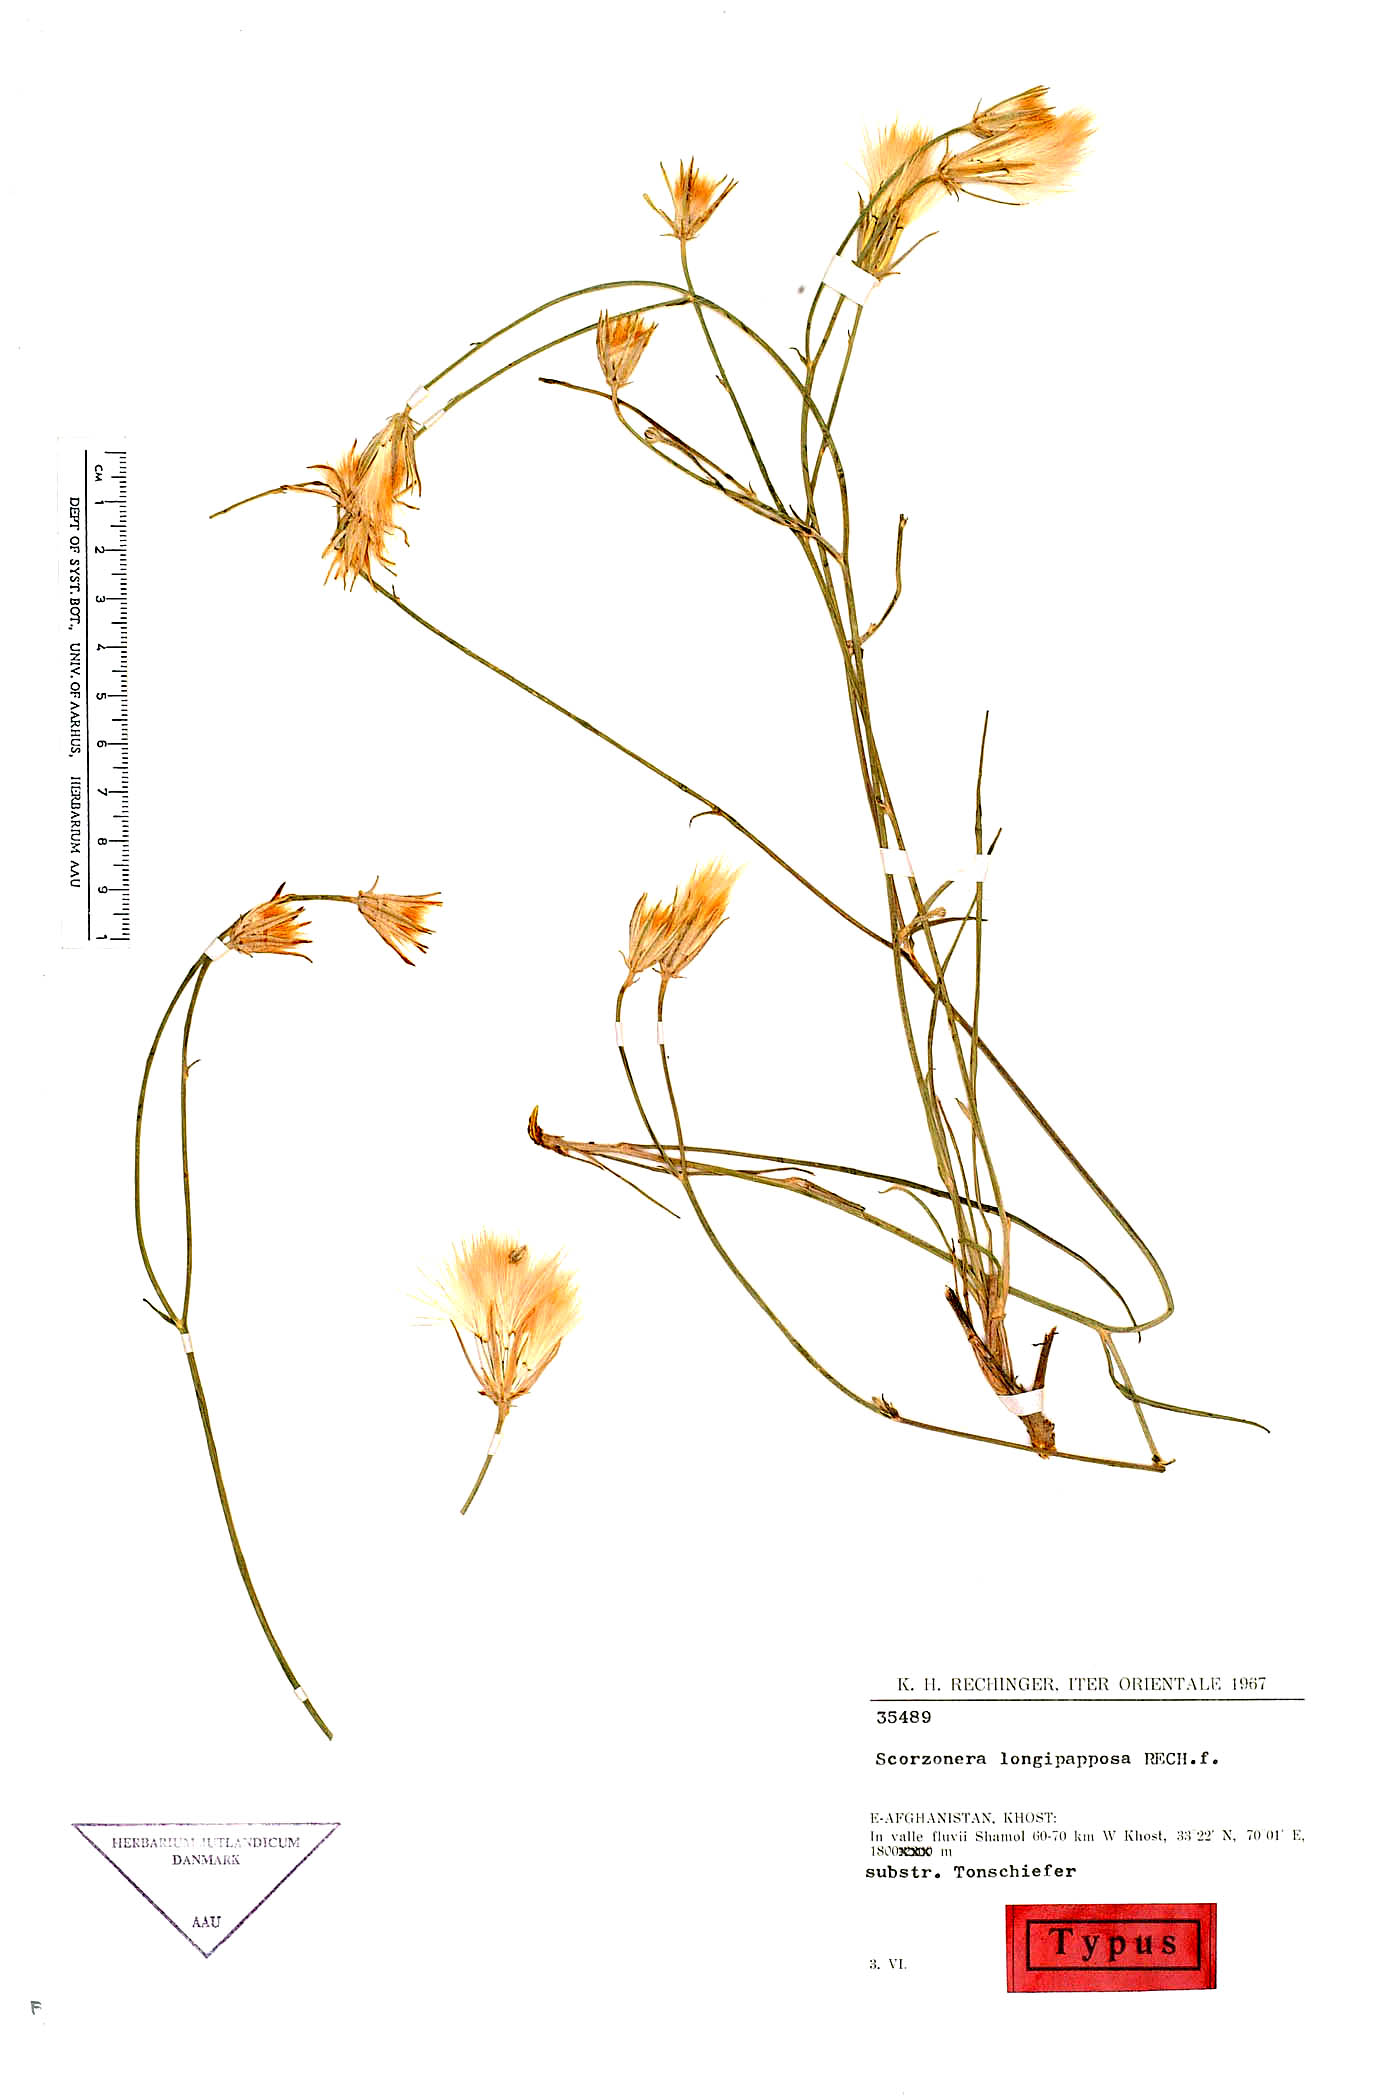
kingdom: Plantae
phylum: Tracheophyta
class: Magnoliopsida
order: Asterales
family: Asteraceae
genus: Ramaliella
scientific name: Ramaliella longipapposa
